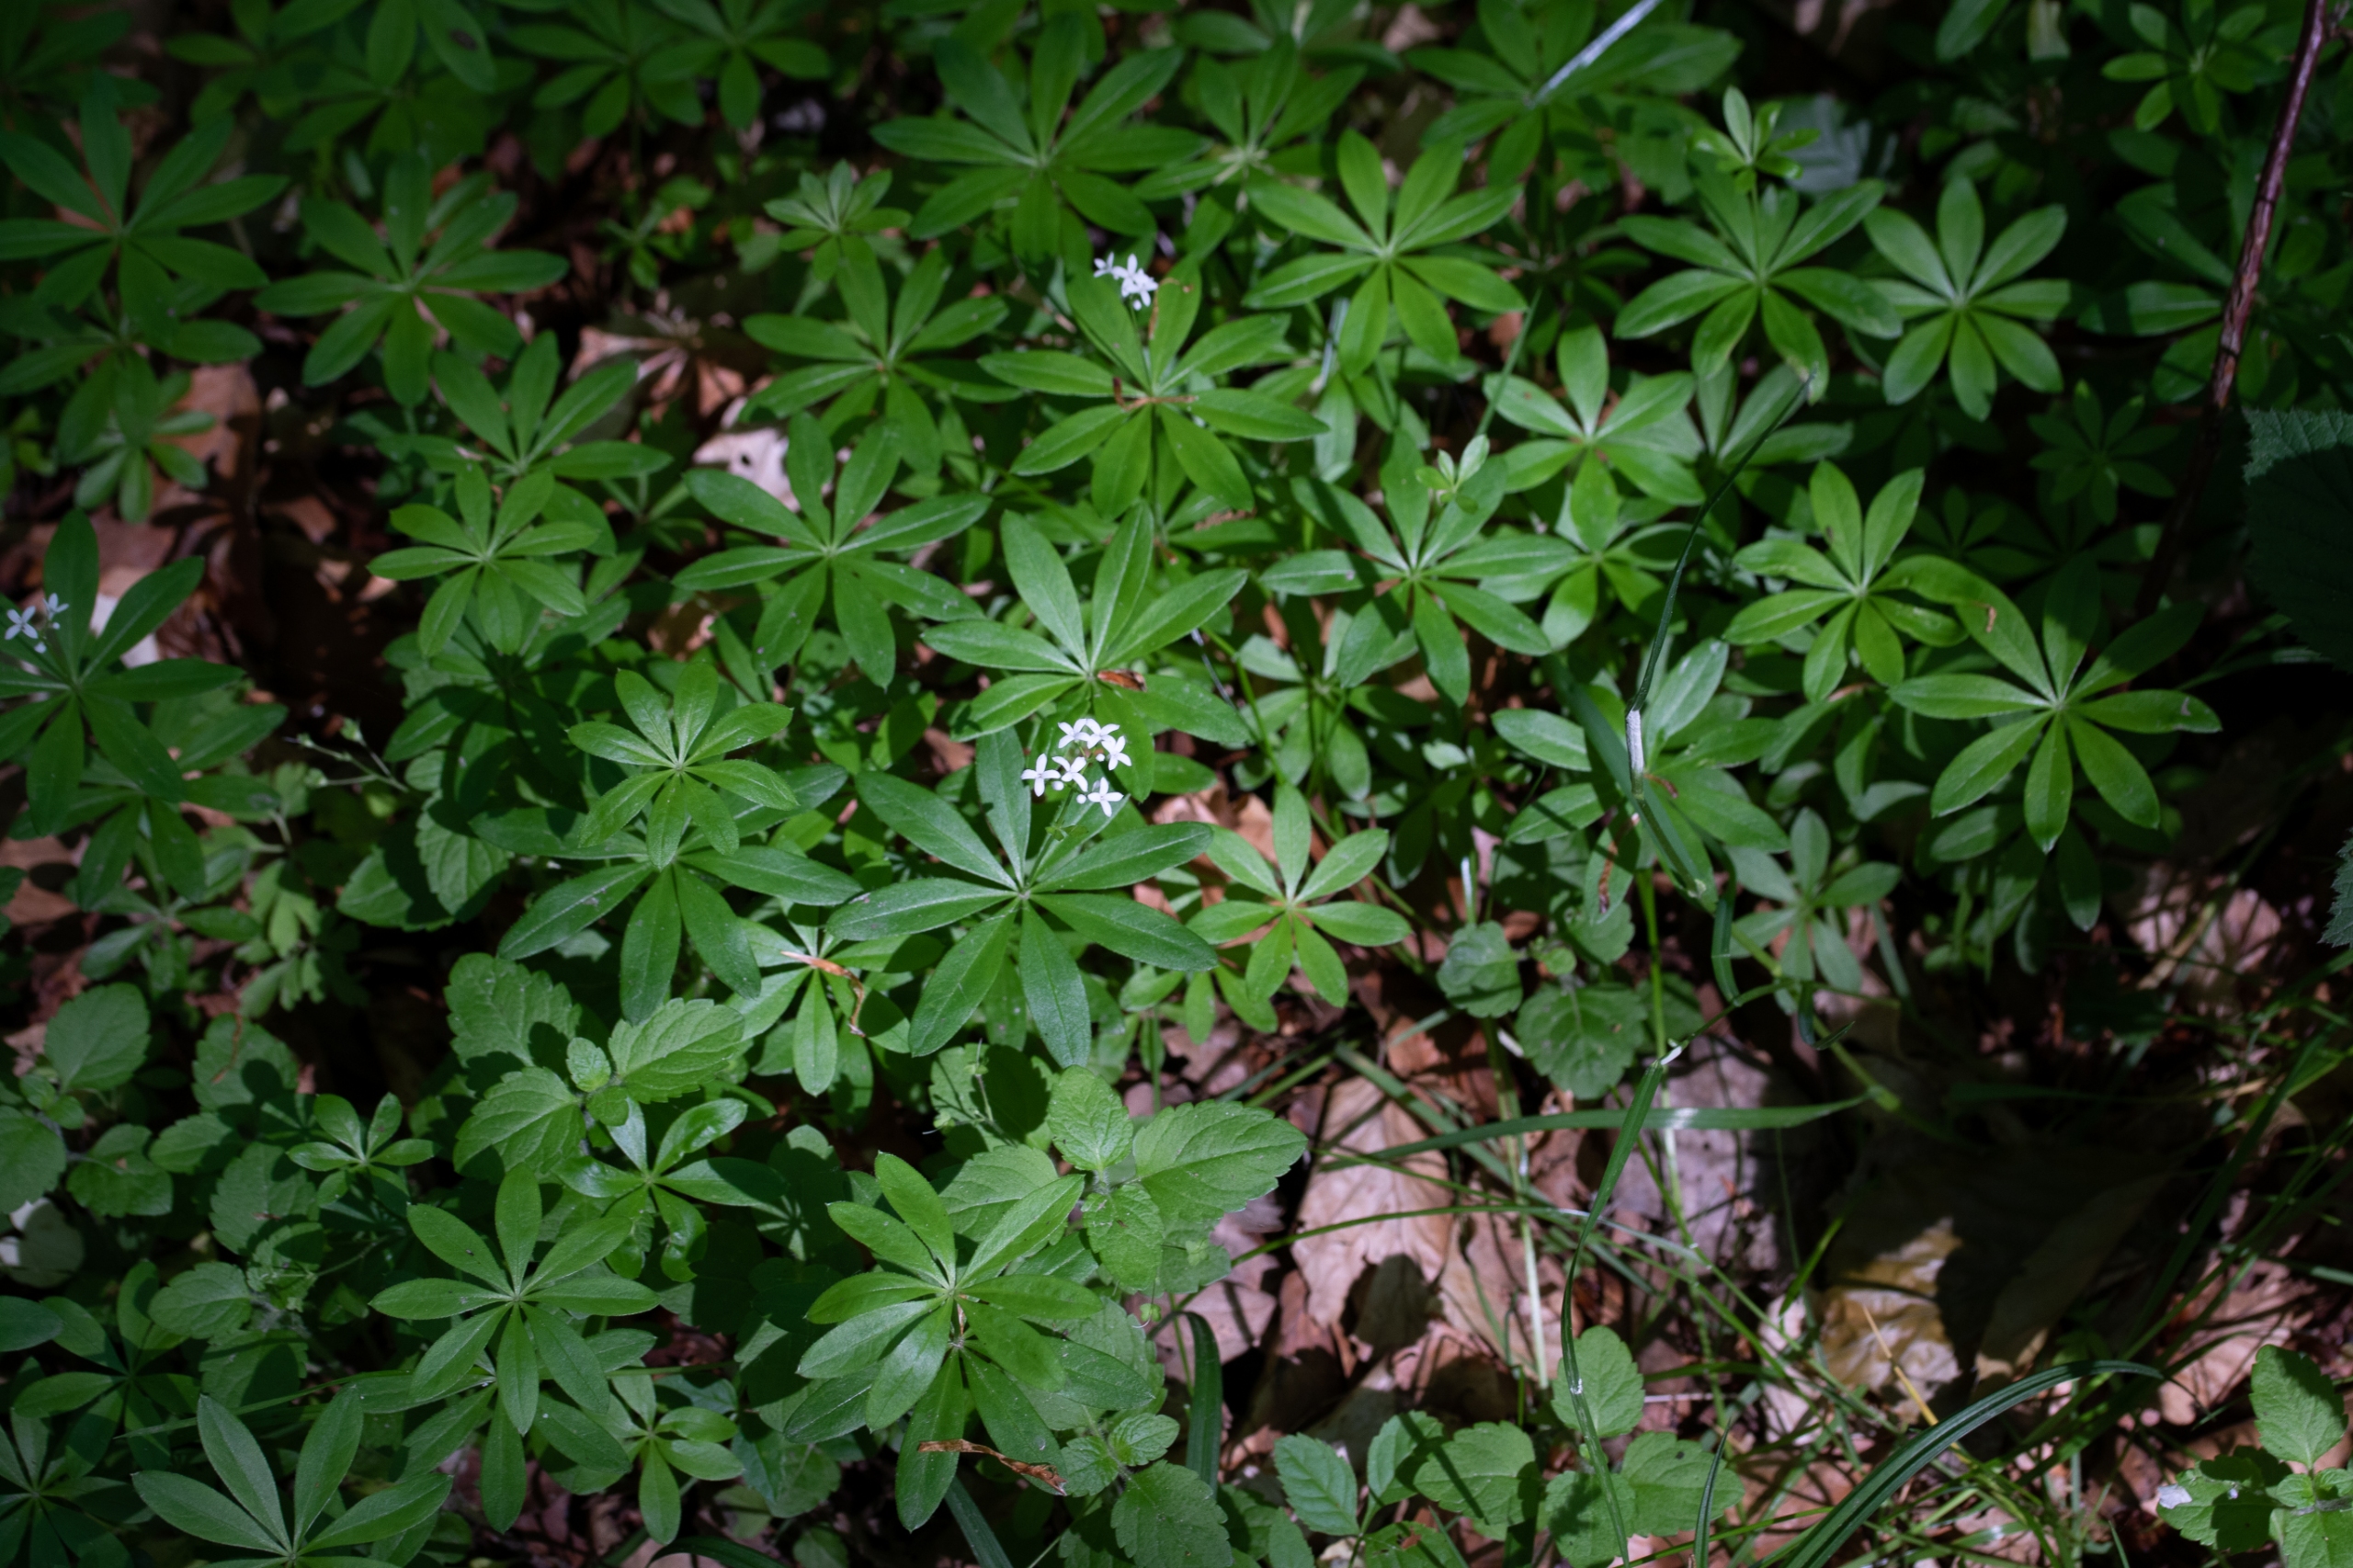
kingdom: Plantae
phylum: Tracheophyta
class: Magnoliopsida
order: Gentianales
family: Rubiaceae
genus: Galium
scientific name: Galium odoratum
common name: Skovmærke
